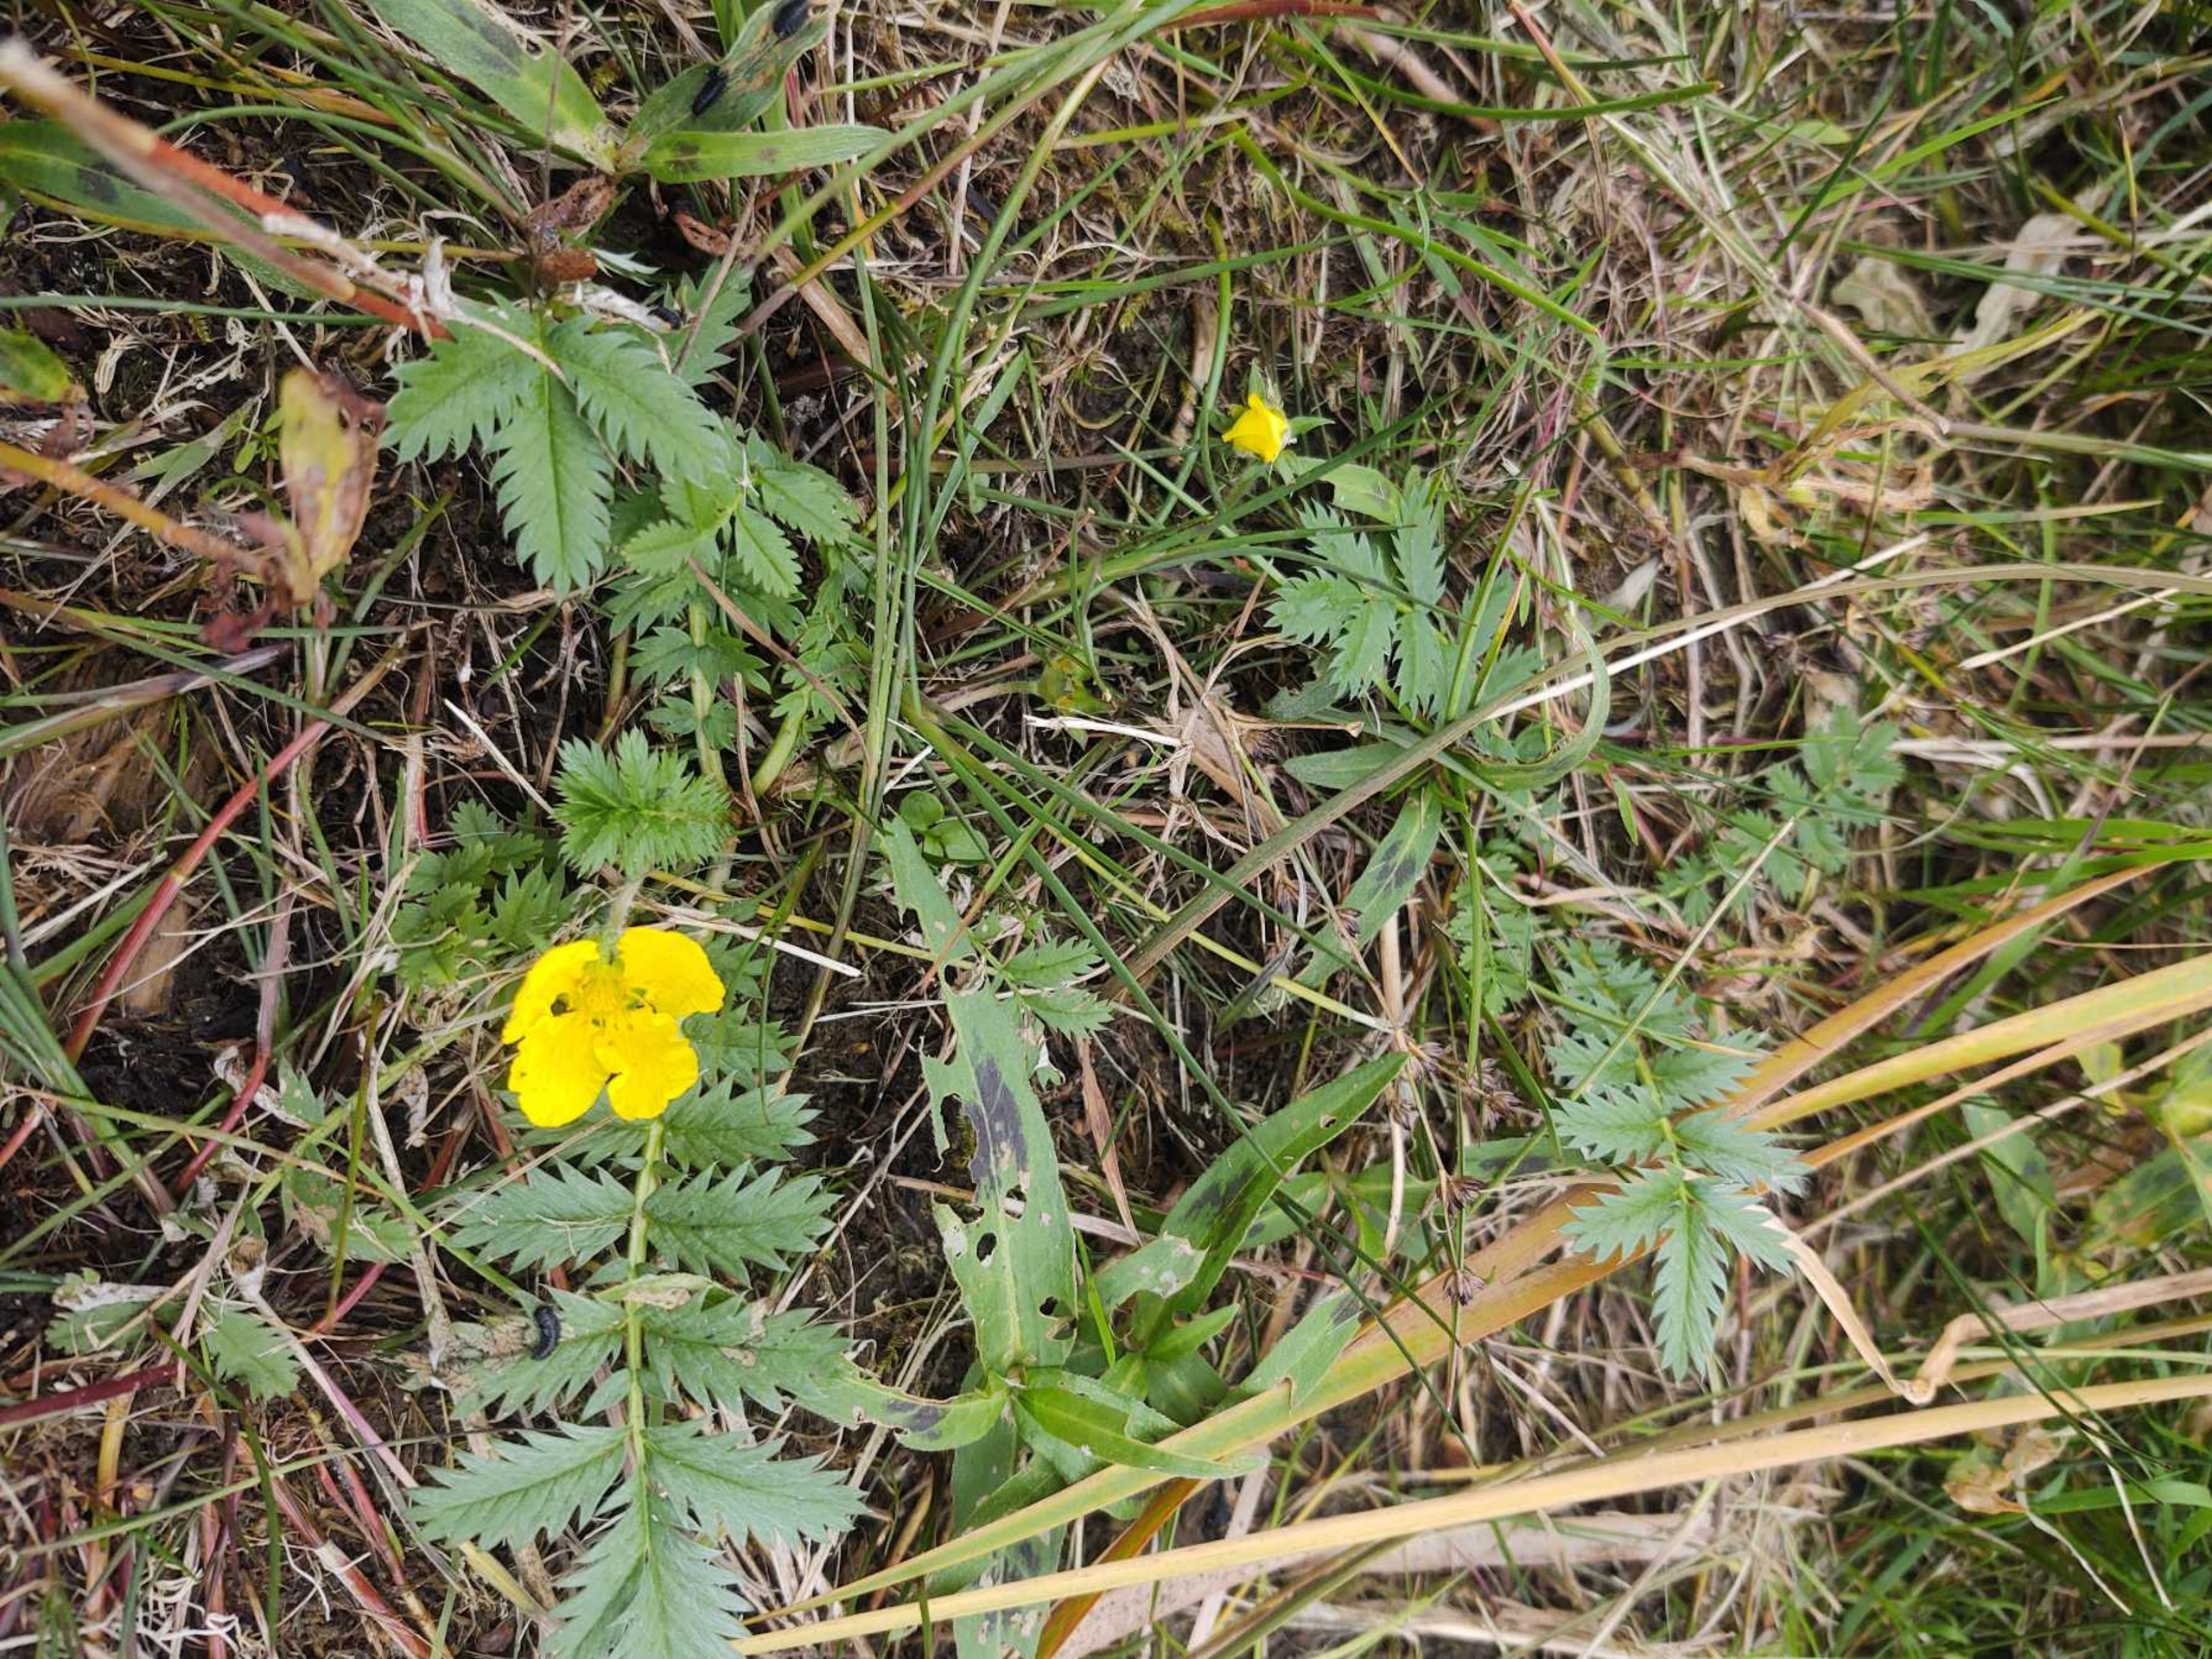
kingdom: Plantae
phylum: Tracheophyta
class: Magnoliopsida
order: Rosales
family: Rosaceae
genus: Argentina
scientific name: Argentina anserina
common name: Gåsepotentil
